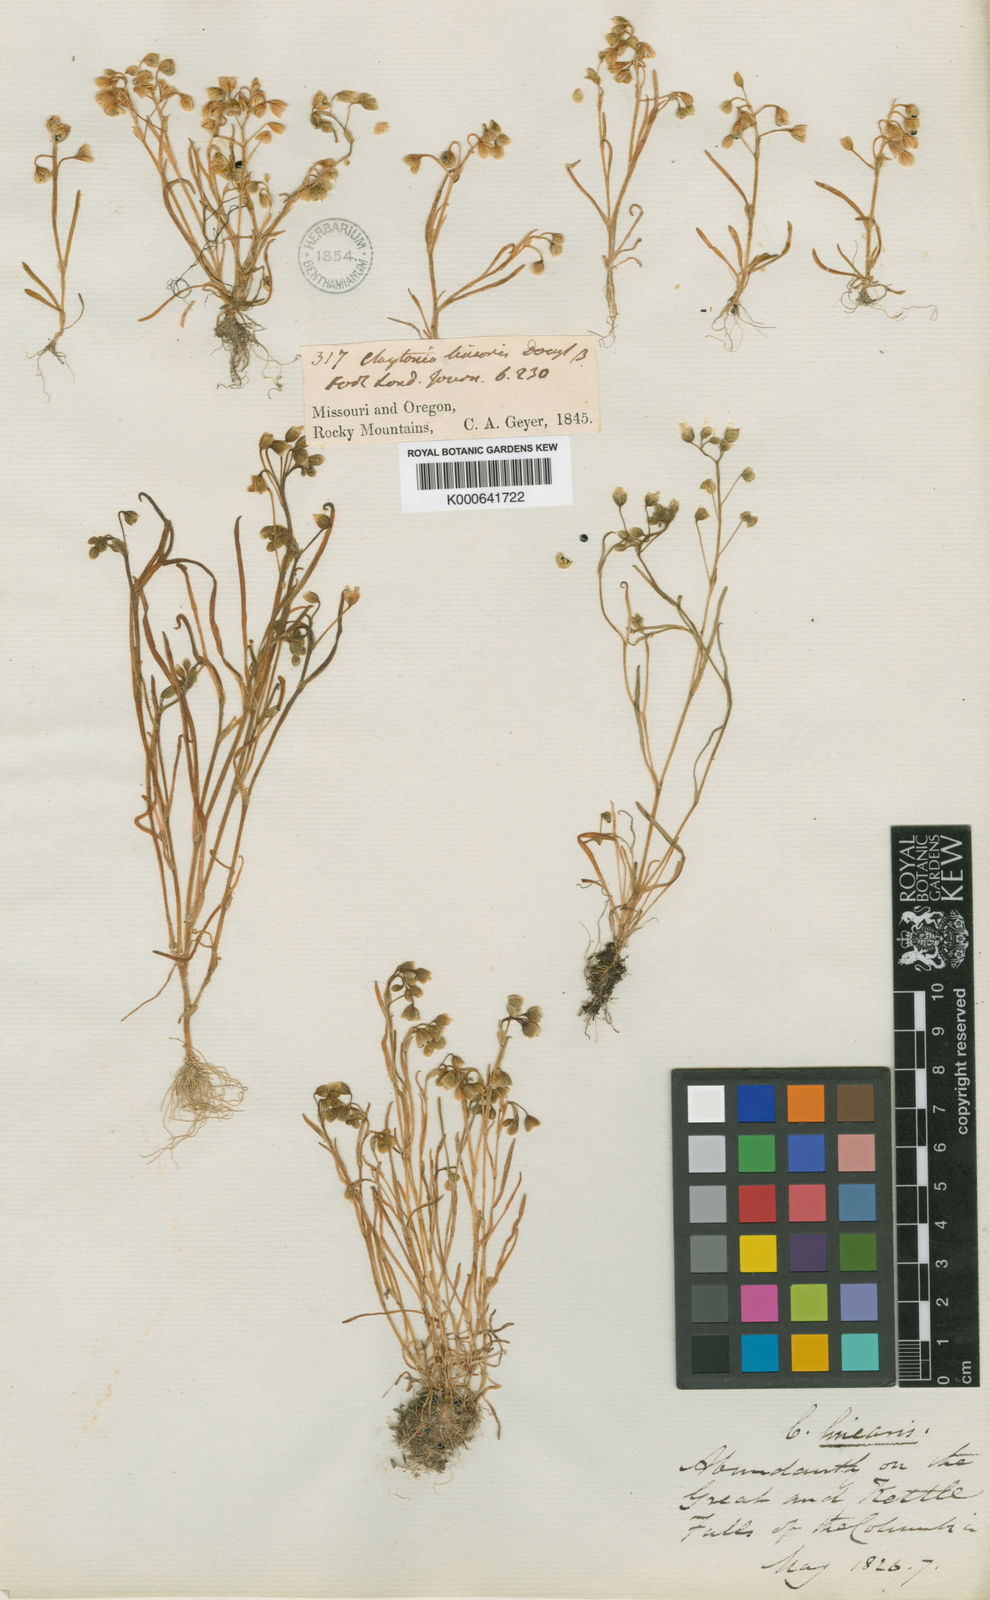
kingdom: Plantae
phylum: Tracheophyta
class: Magnoliopsida
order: Caryophyllales
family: Montiaceae
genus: Montia
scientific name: Montia linearis
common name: Narrow-leaf montia
